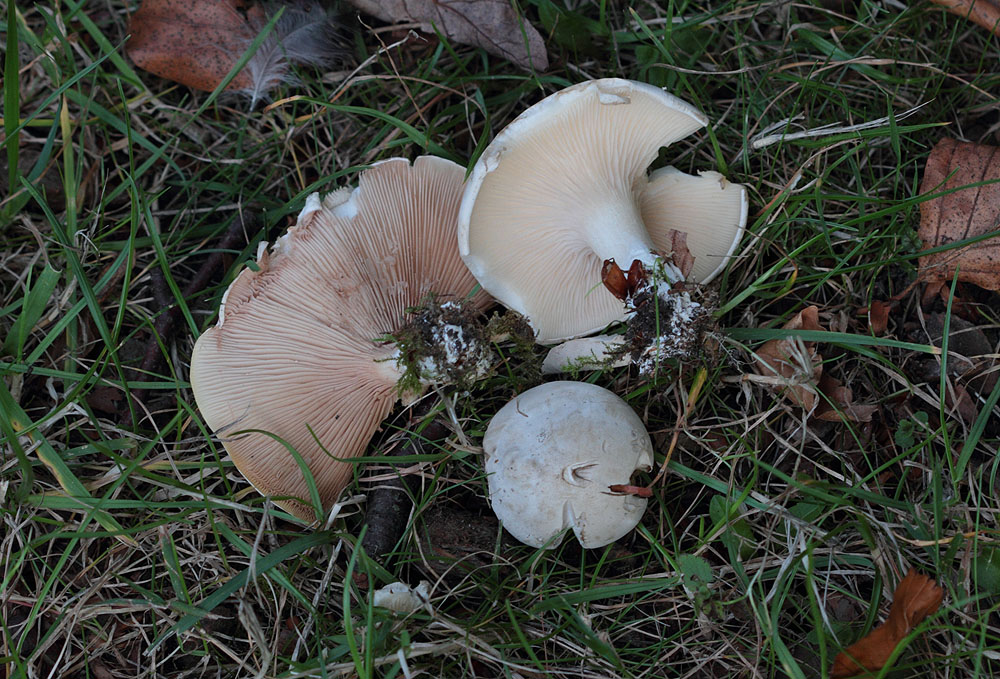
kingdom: Fungi
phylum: Basidiomycota
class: Agaricomycetes
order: Agaricales
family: Entolomataceae
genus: Clitopilus
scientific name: Clitopilus prunulus
